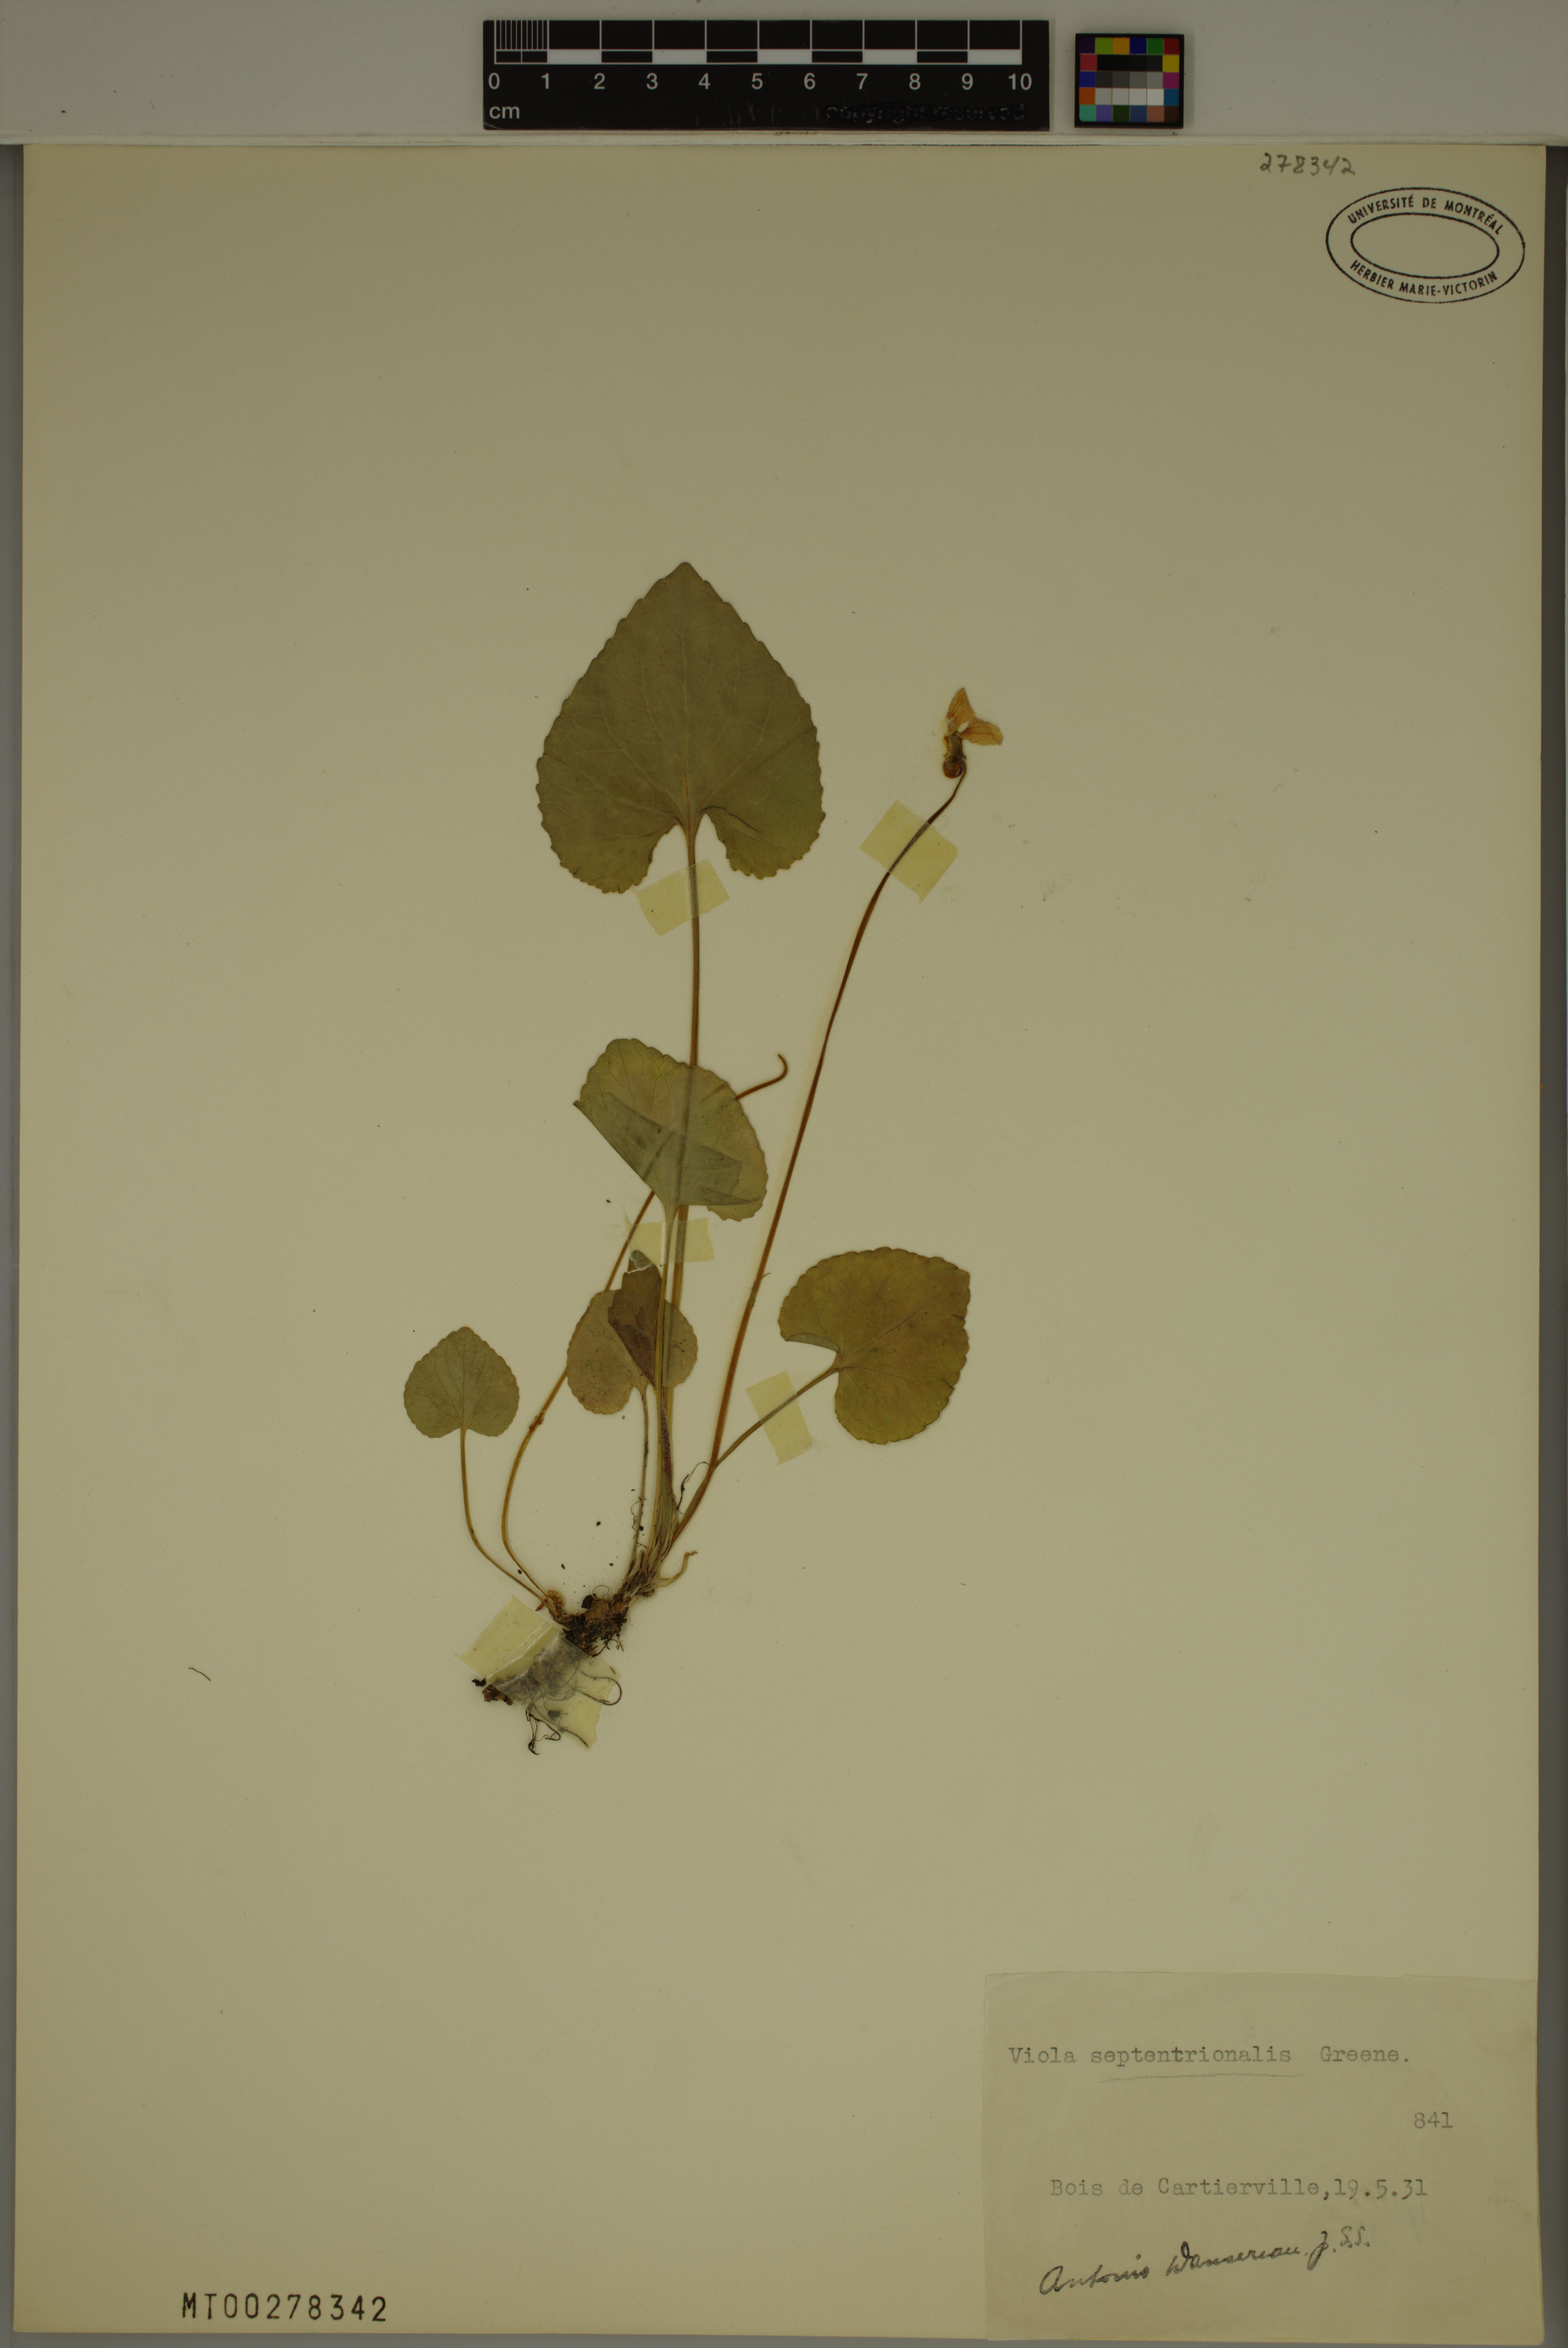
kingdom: Plantae
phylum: Tracheophyta
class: Magnoliopsida
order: Malpighiales
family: Violaceae
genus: Viola
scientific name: Viola septentrionalis
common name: Northern woodland violet
